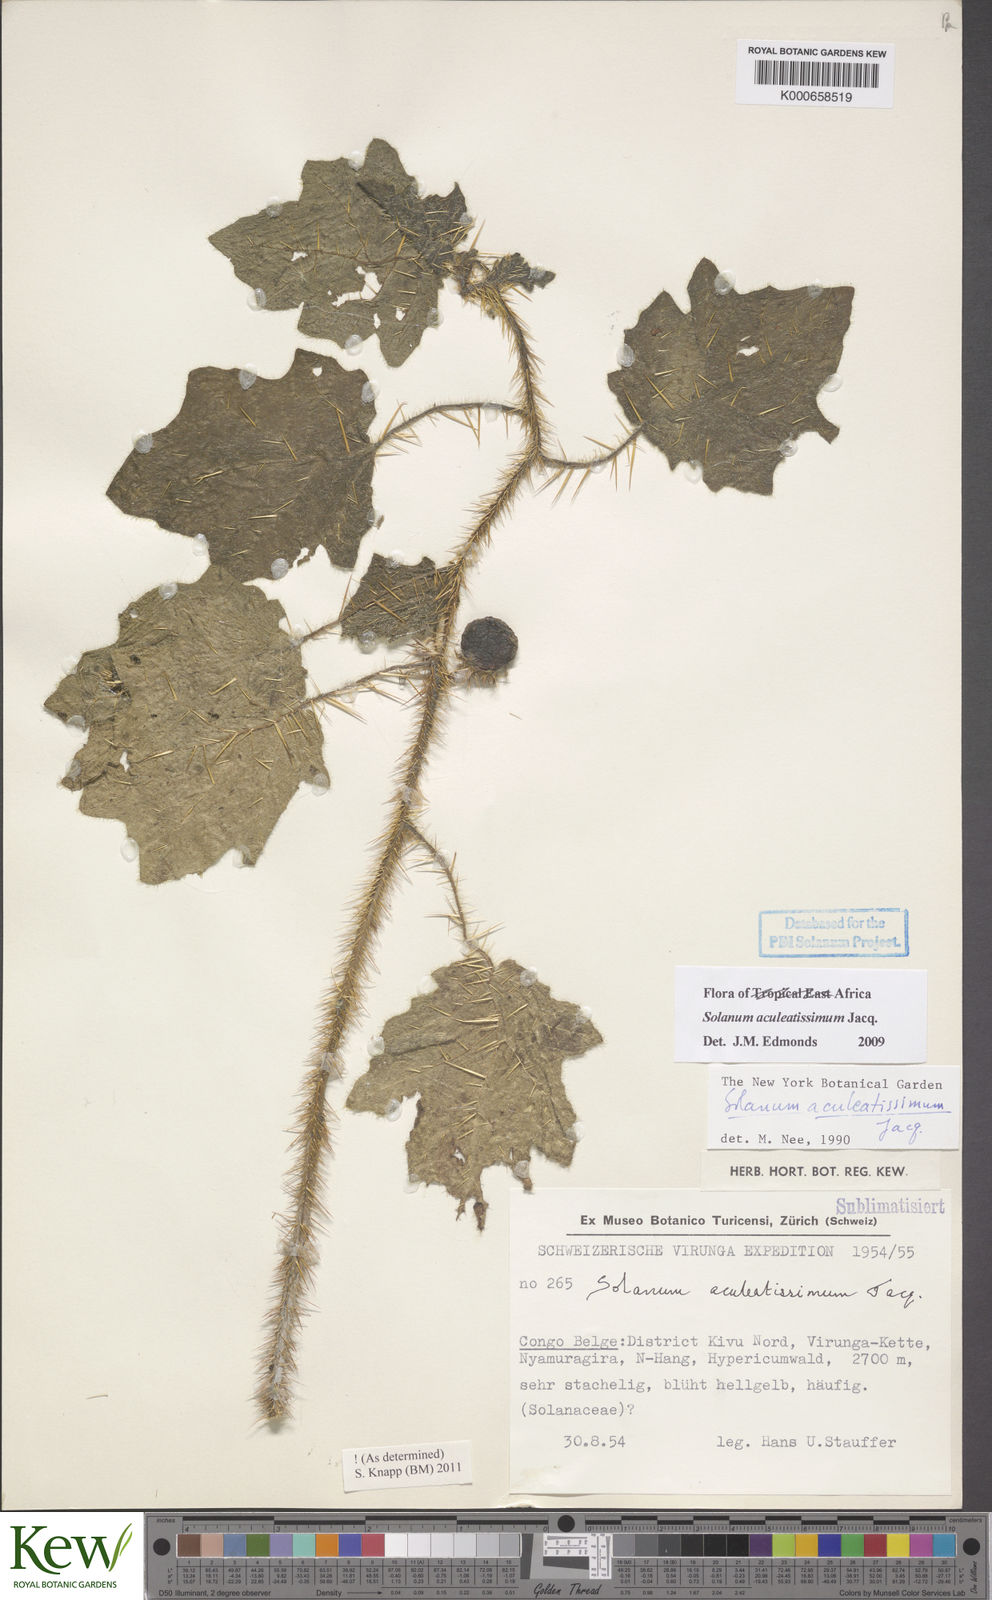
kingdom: Plantae
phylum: Tracheophyta
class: Magnoliopsida
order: Solanales
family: Solanaceae
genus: Solanum
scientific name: Solanum aculeatissimum
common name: Dutch eggplant
